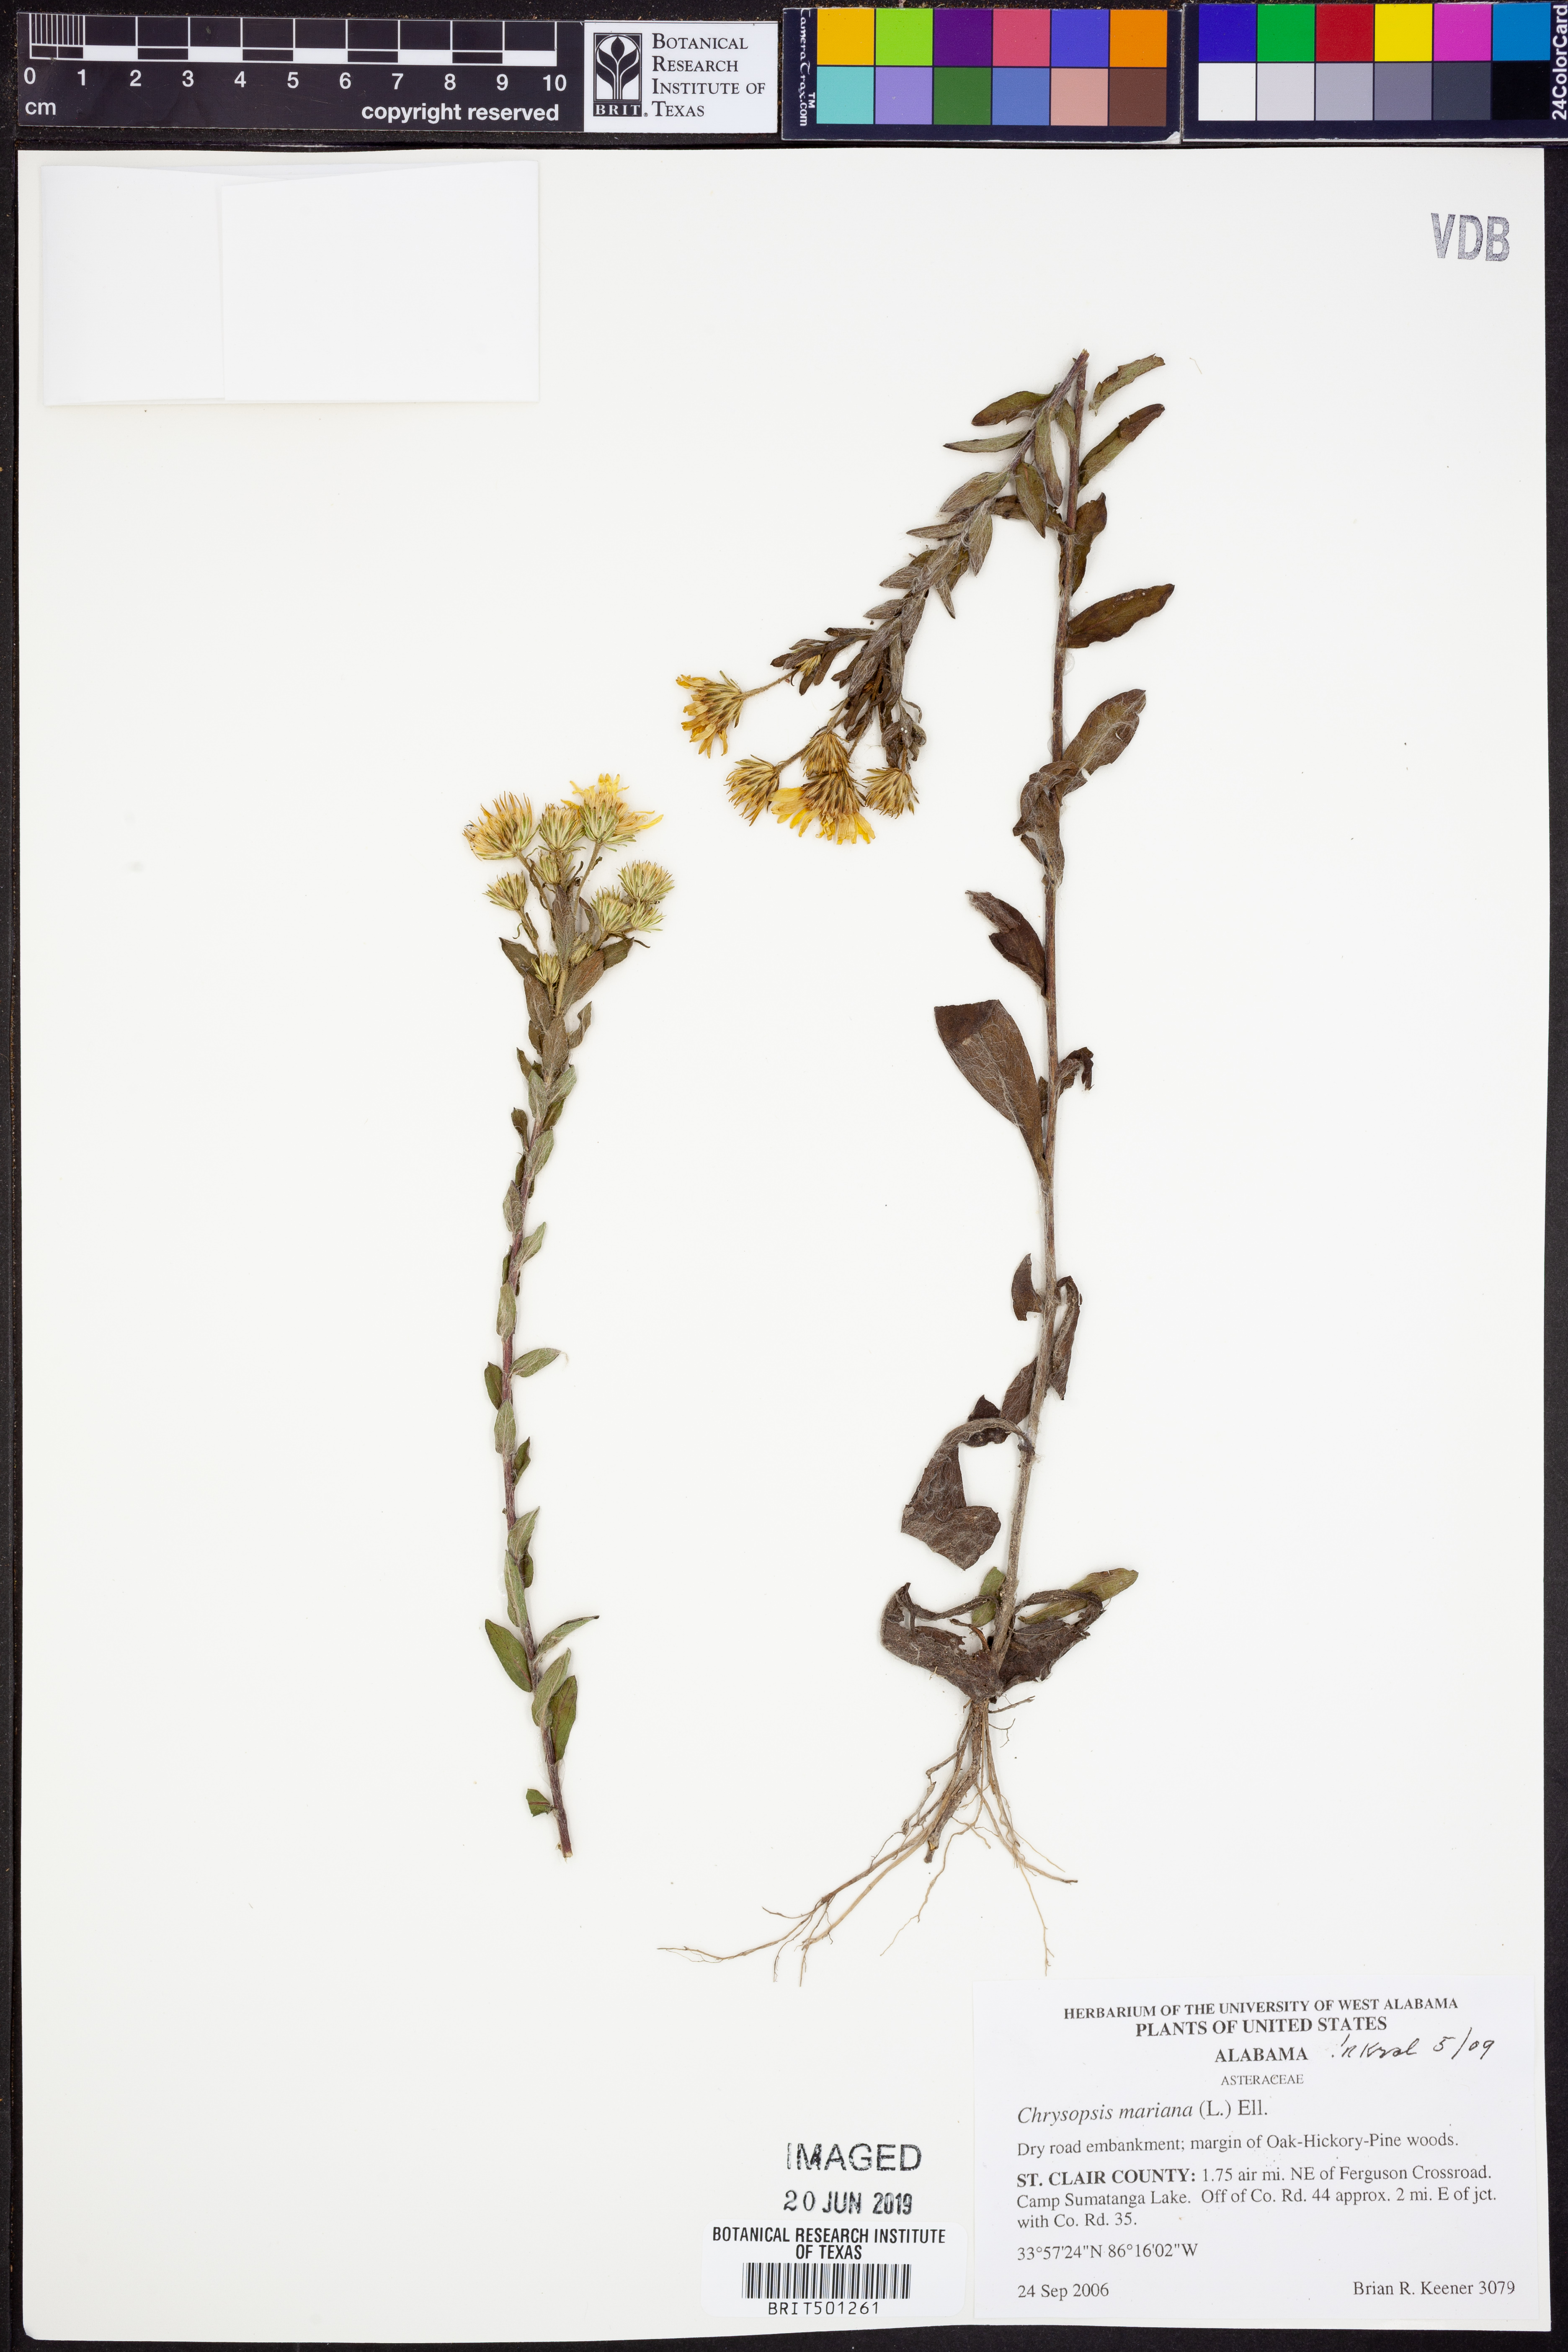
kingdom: Plantae
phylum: Tracheophyta
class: Magnoliopsida
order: Asterales
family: Asteraceae
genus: Chrysopsis
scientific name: Chrysopsis mariana
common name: Maryland golden-aster
